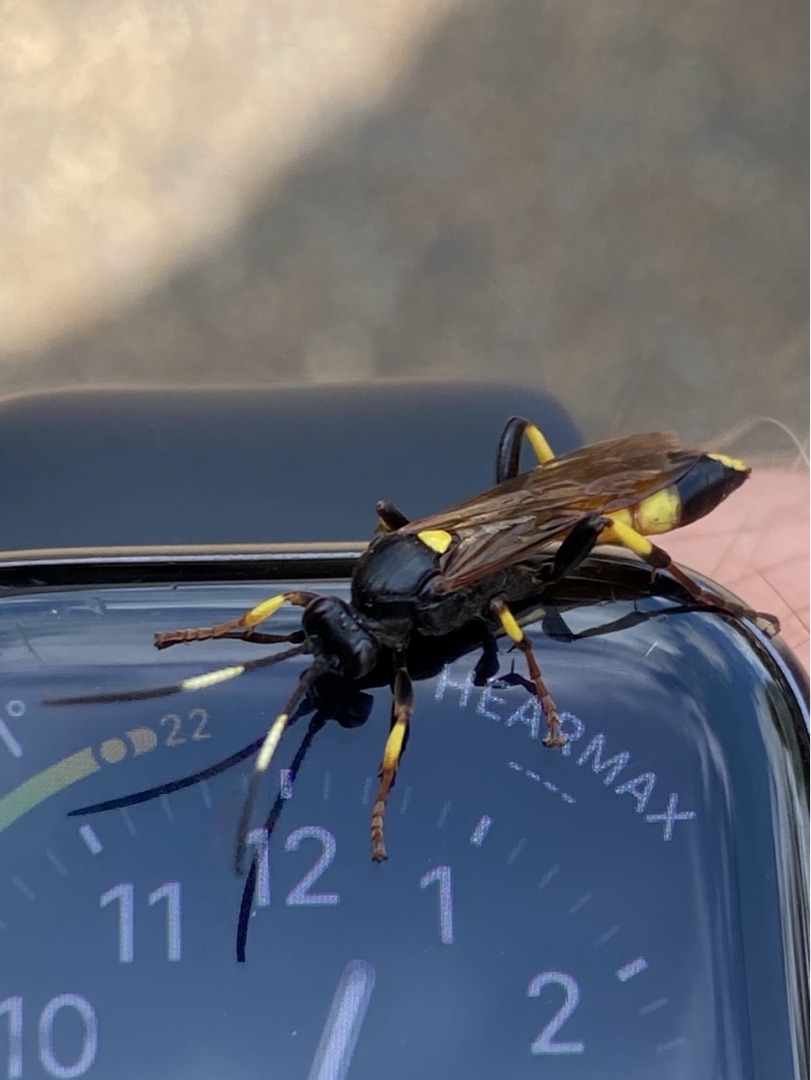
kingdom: Animalia
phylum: Arthropoda
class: Insecta
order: Hymenoptera
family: Ichneumonidae
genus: Ichneumon
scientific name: Ichneumon stramentor
